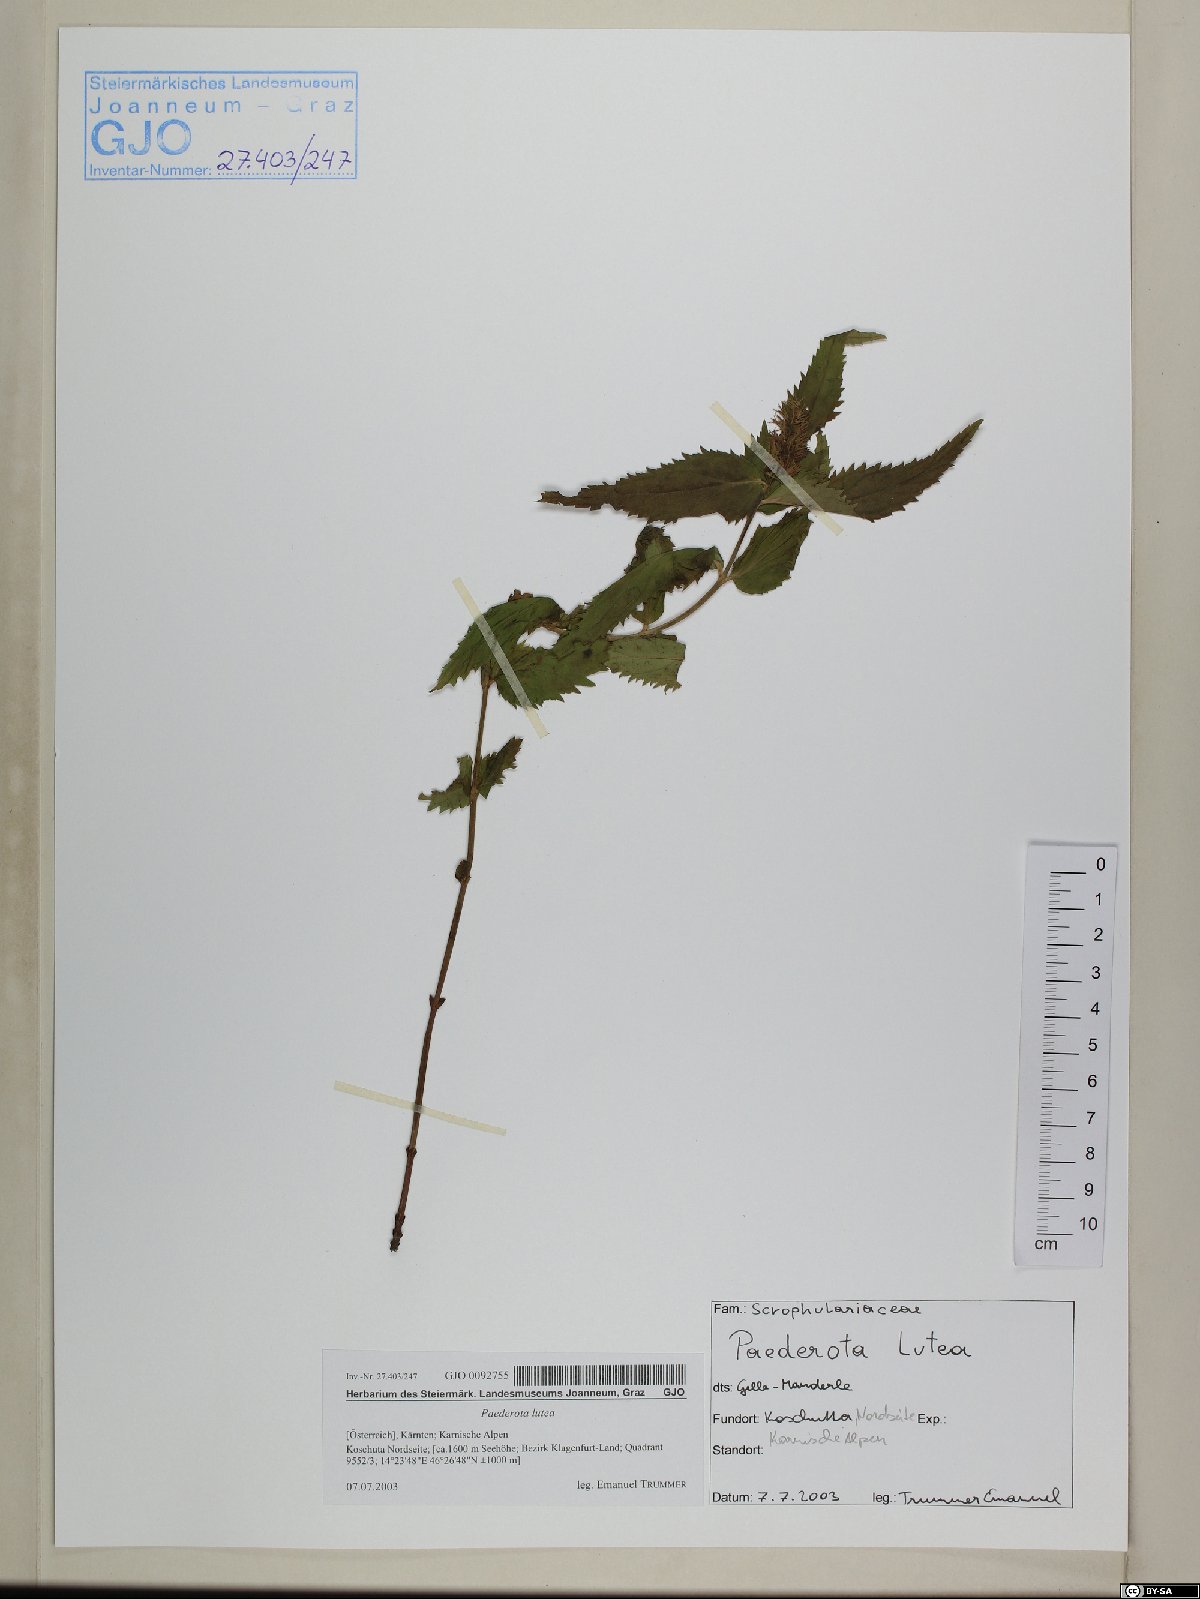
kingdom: Plantae
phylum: Tracheophyta
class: Magnoliopsida
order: Lamiales
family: Plantaginaceae
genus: Paederota
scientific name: Paederota lutea
